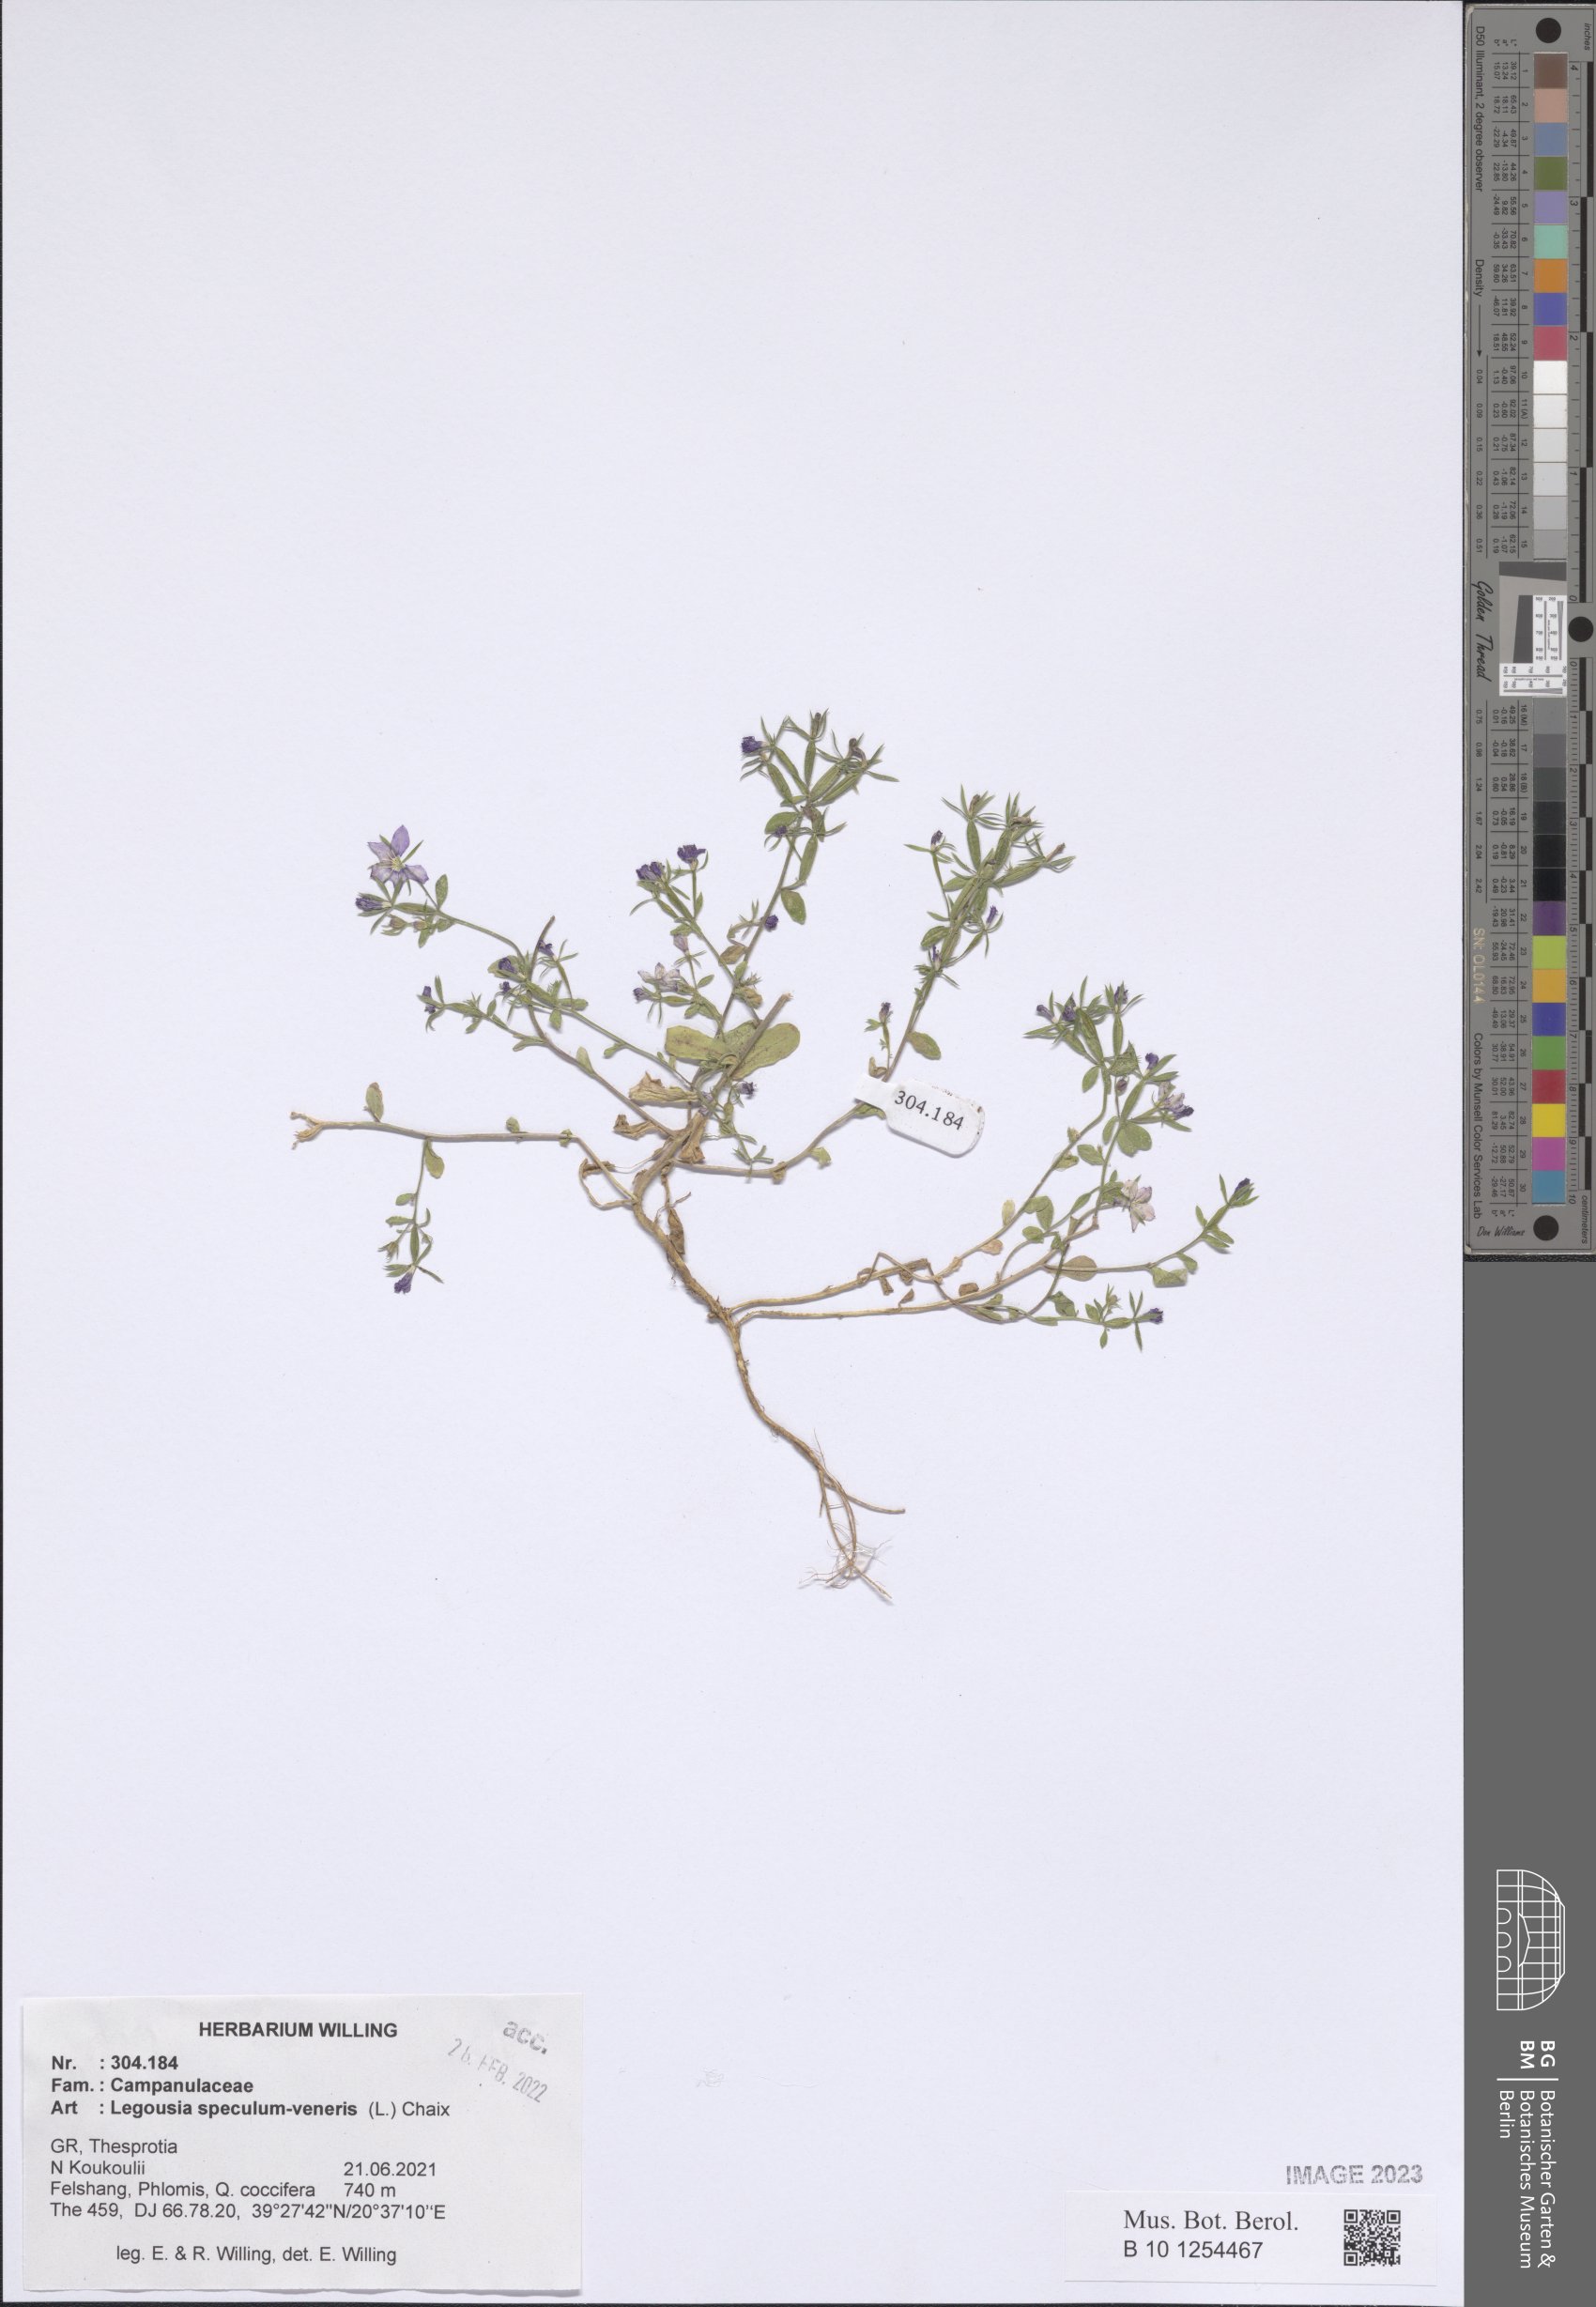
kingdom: Plantae
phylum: Tracheophyta
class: Magnoliopsida
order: Asterales
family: Campanulaceae
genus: Legousia
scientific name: Legousia speculum-veneris
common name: Large venus's-looking-glass
